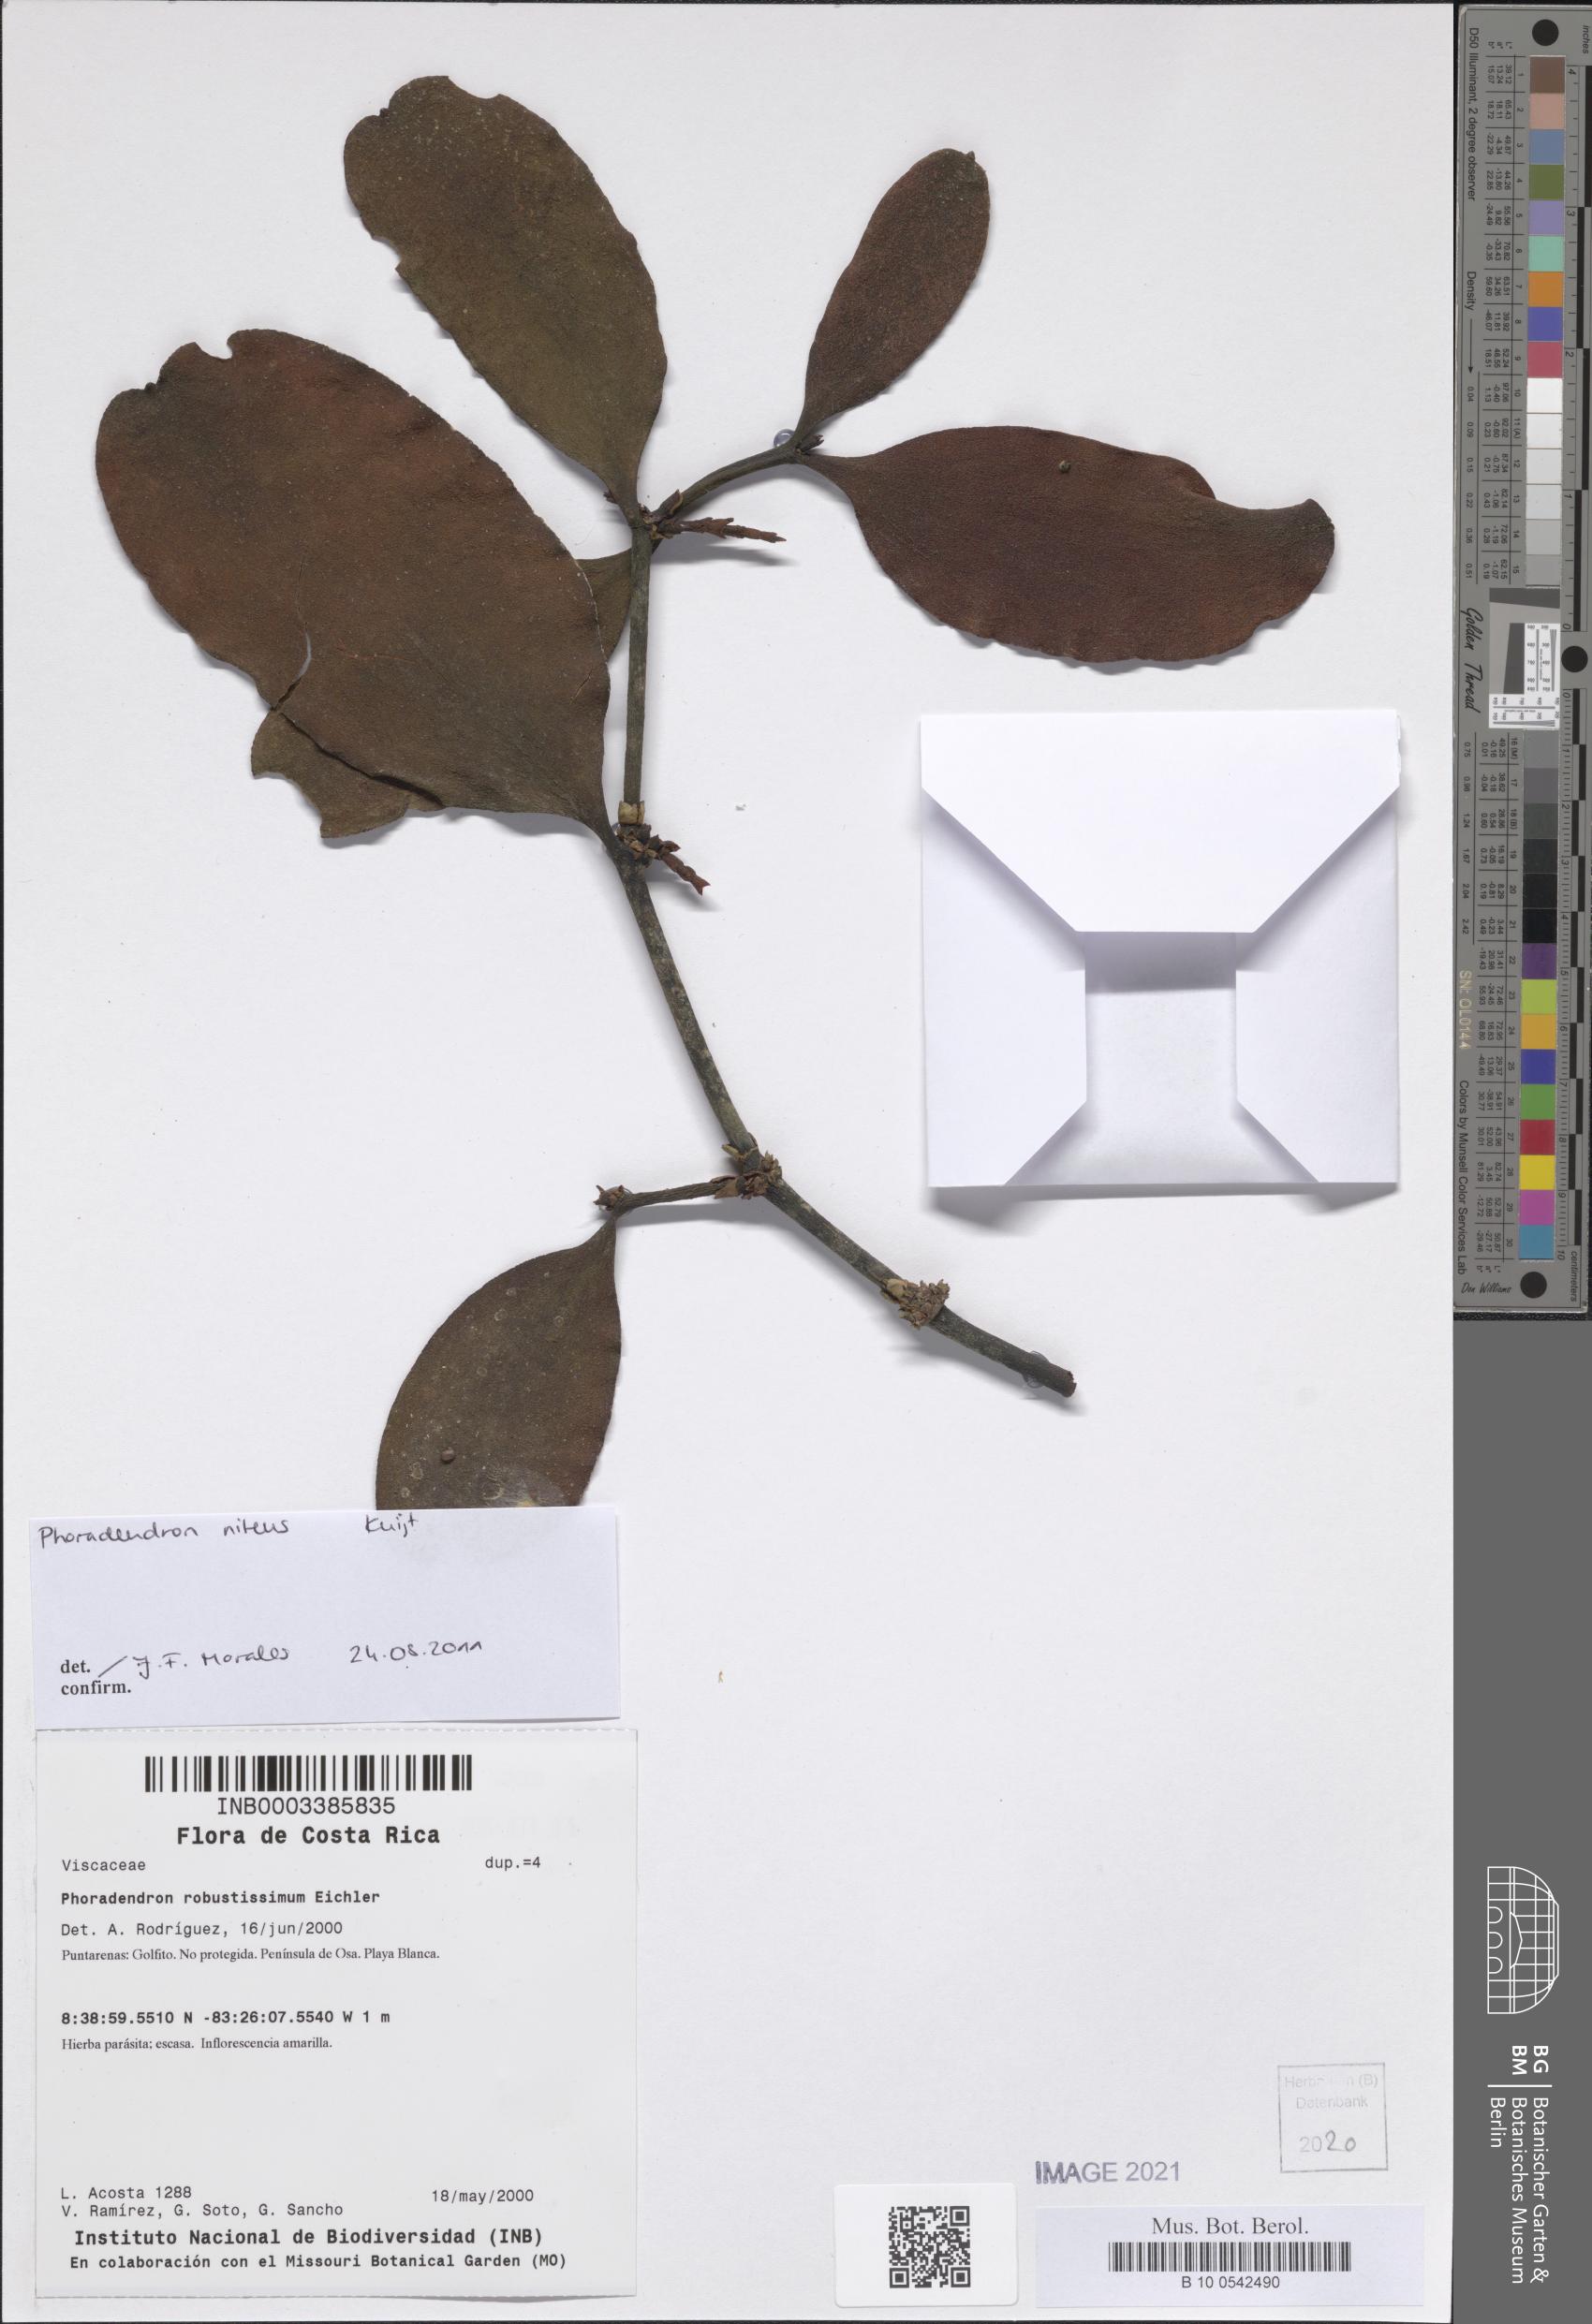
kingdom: Plantae
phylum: Tracheophyta
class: Magnoliopsida
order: Santalales
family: Viscaceae
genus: Phoradendron
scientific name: Phoradendron nitens
